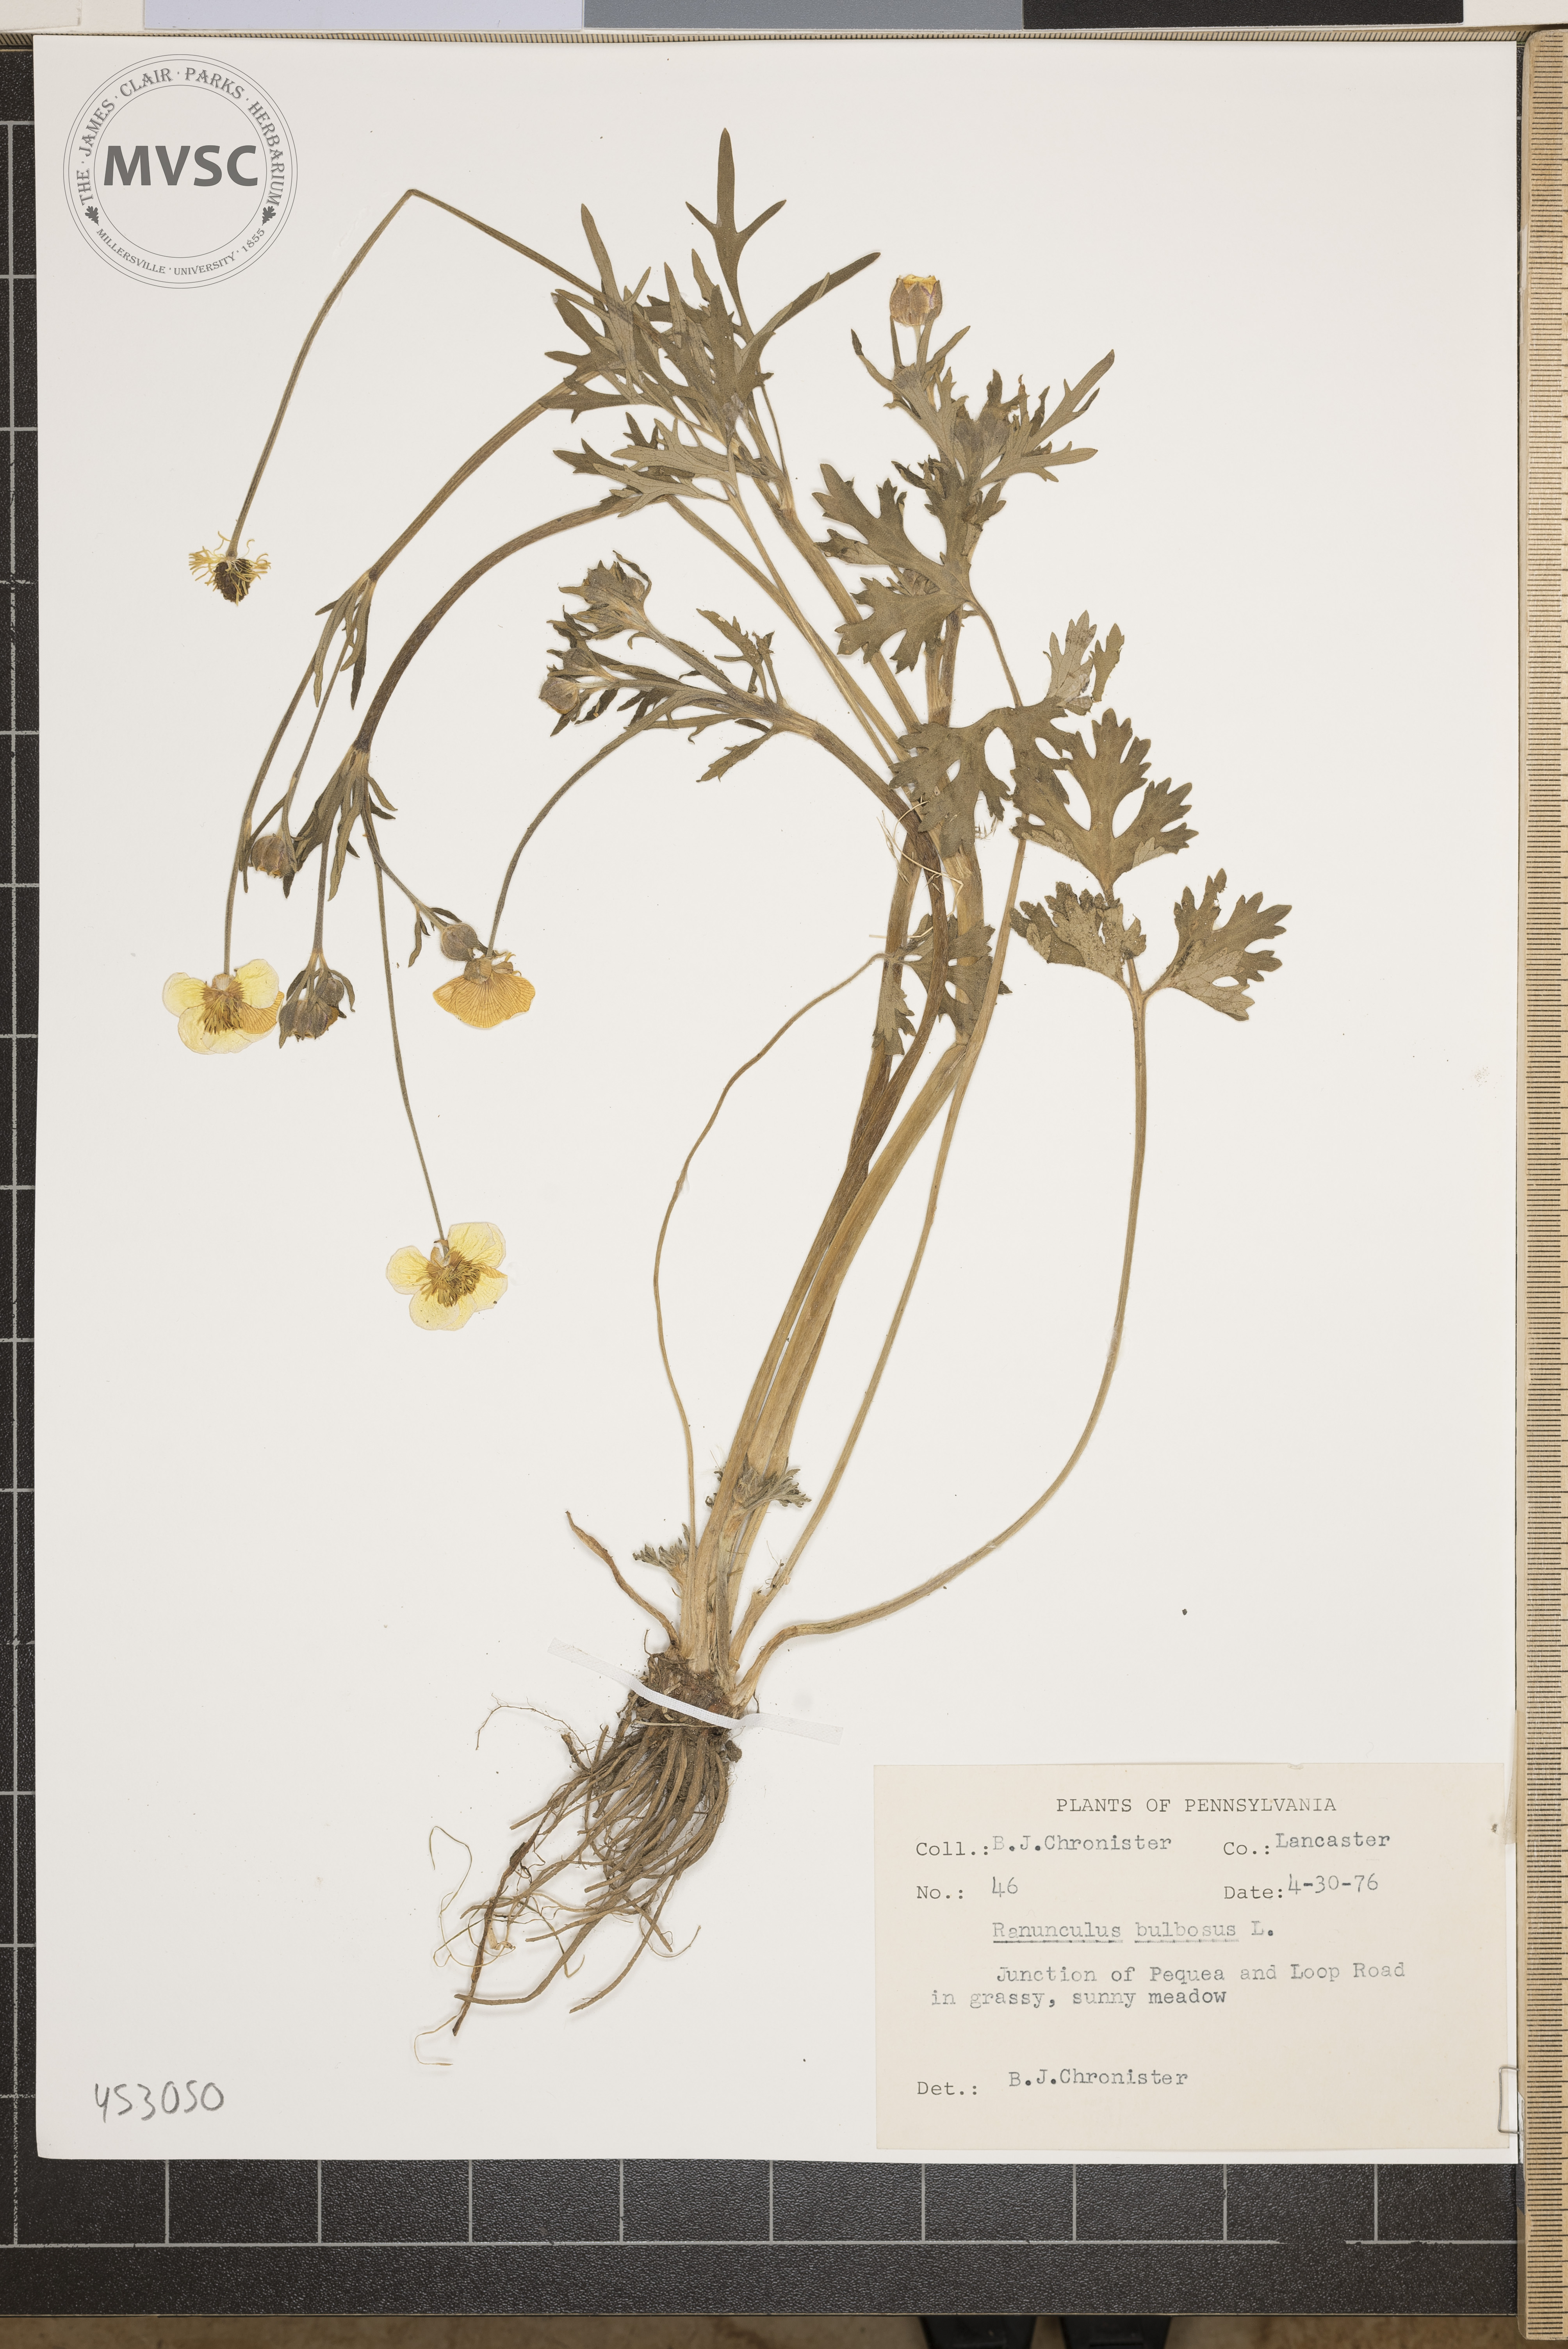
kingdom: Plantae
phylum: Tracheophyta
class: Magnoliopsida
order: Ranunculales
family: Ranunculaceae
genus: Ranunculus
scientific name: Ranunculus bulbosus
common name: Bulbous buttercup
